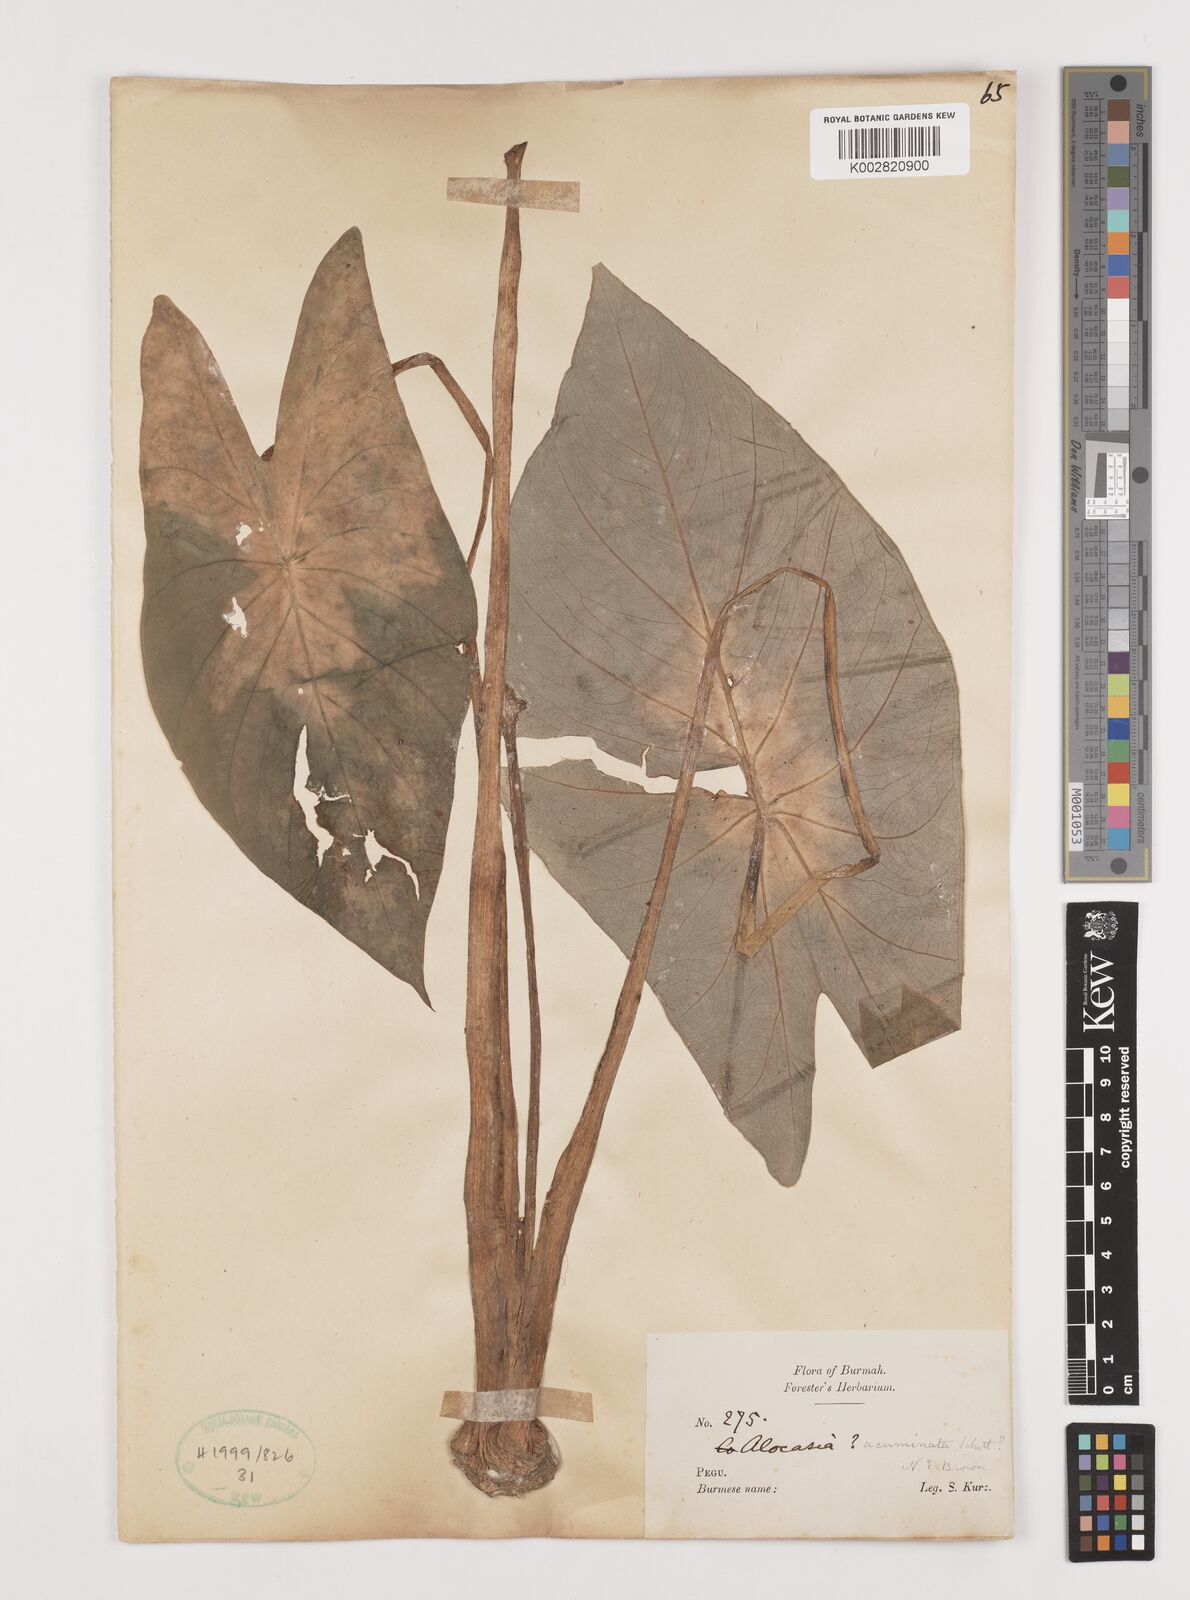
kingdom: Plantae
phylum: Tracheophyta
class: Liliopsida
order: Alismatales
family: Araceae
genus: Alocasia
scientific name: Alocasia acuminata
